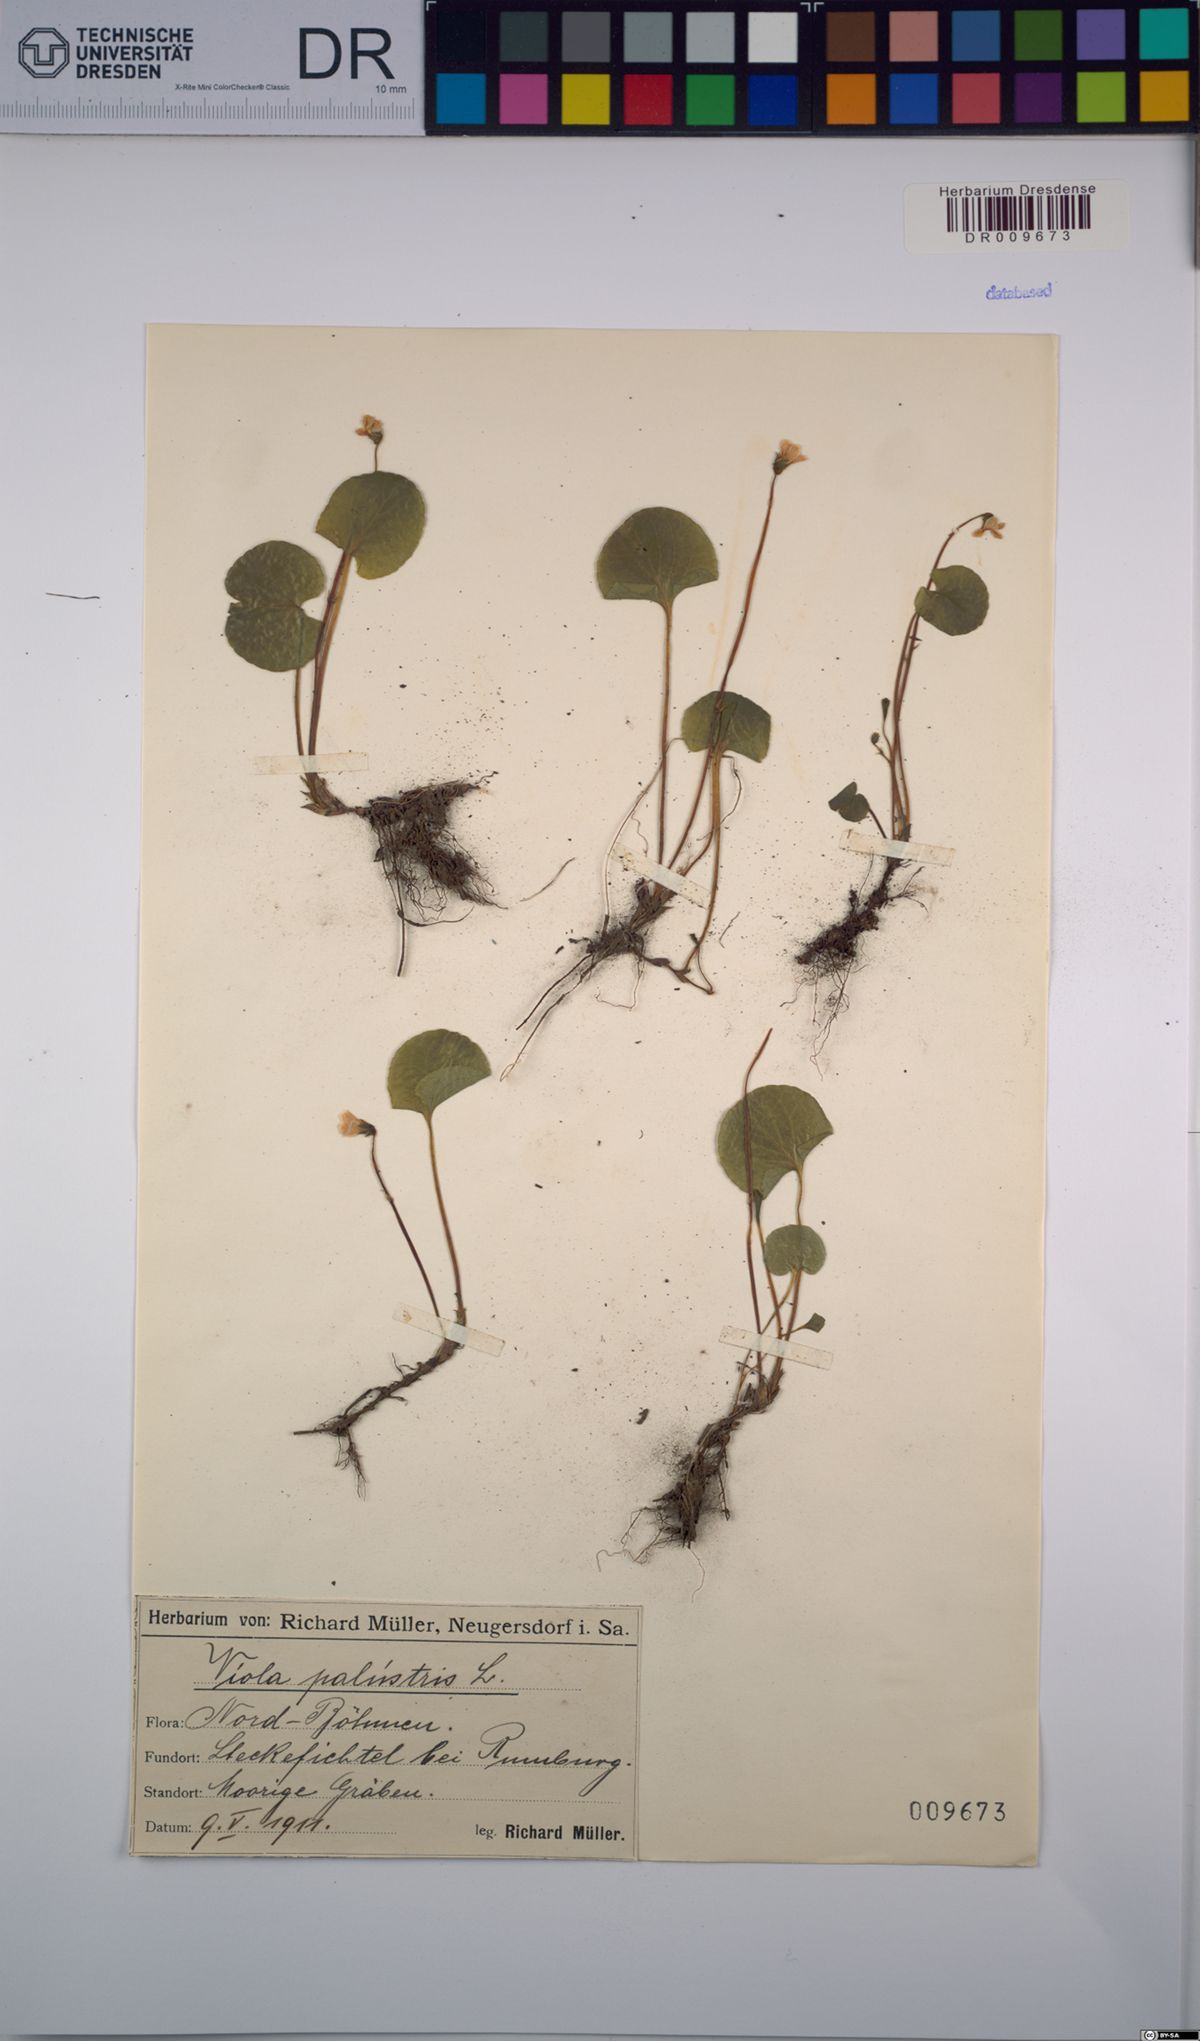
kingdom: Plantae
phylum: Tracheophyta
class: Magnoliopsida
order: Malpighiales
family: Violaceae
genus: Viola
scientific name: Viola palustris
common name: Marsh violet
